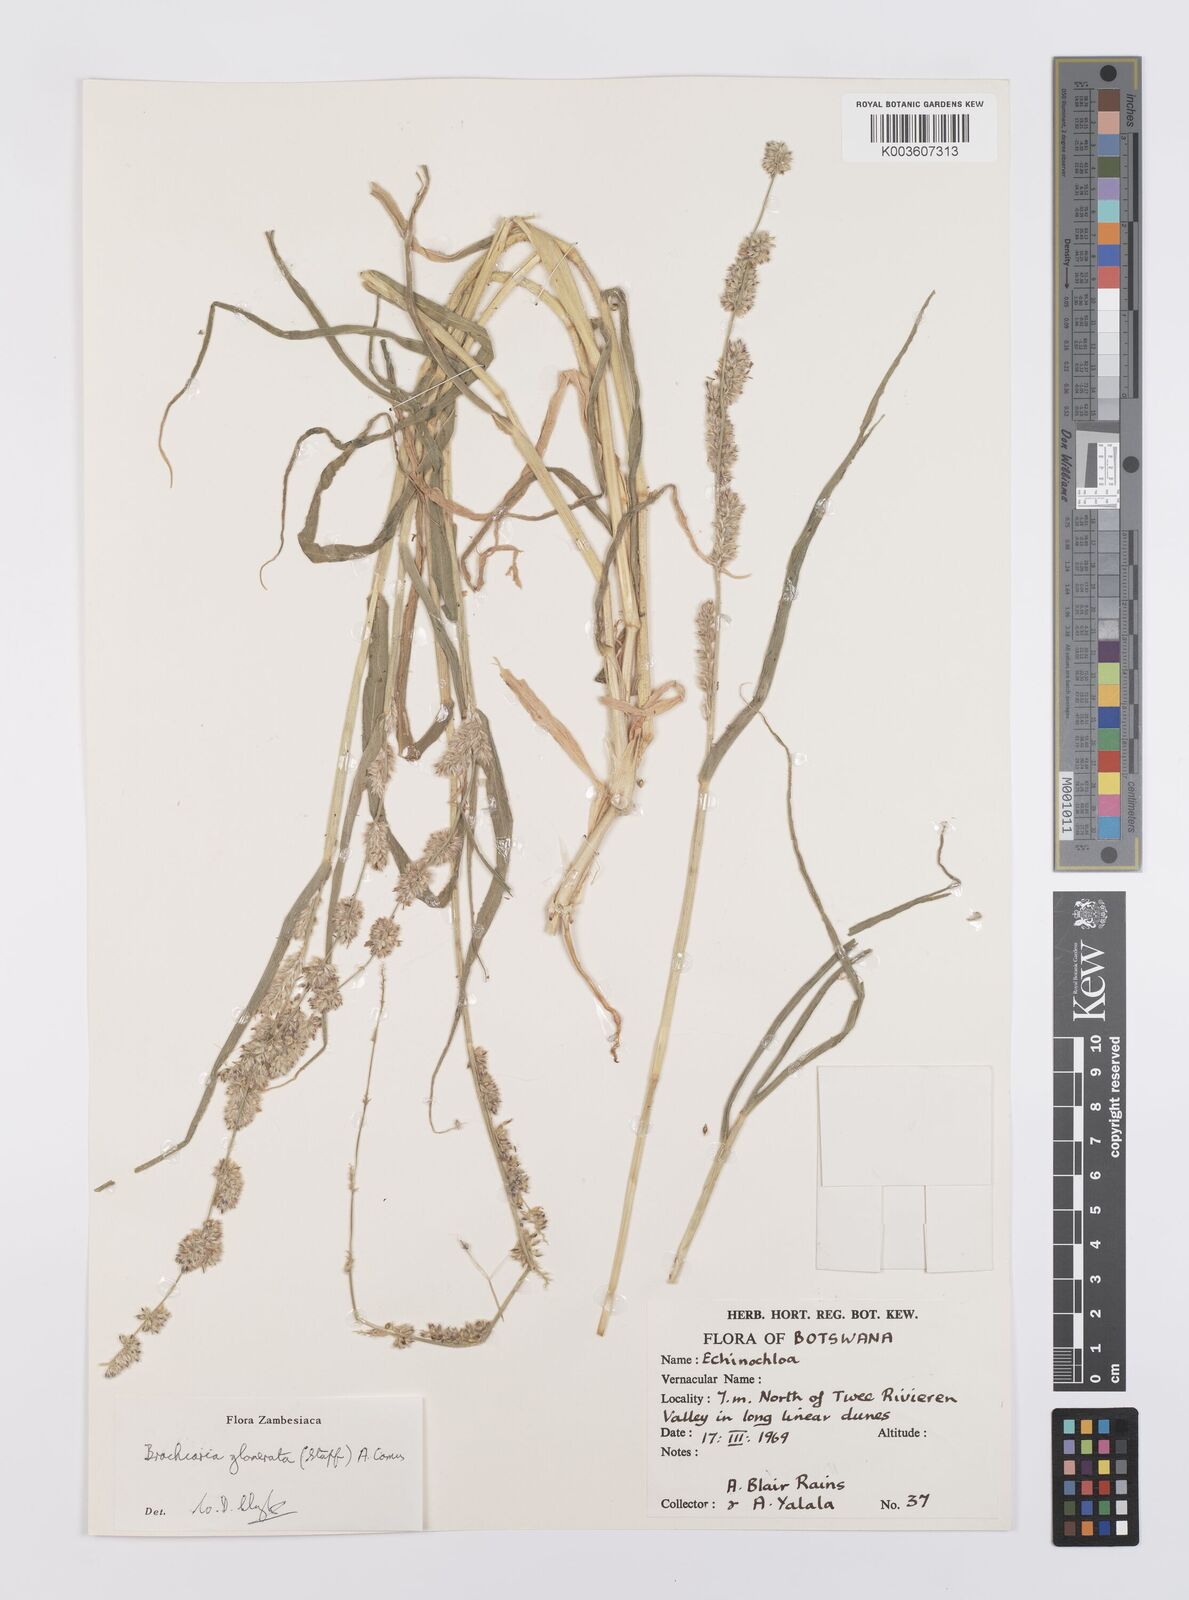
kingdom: Plantae
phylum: Tracheophyta
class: Liliopsida
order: Poales
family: Poaceae
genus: Urochloa
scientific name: Urochloa Brachiaria glomerata
